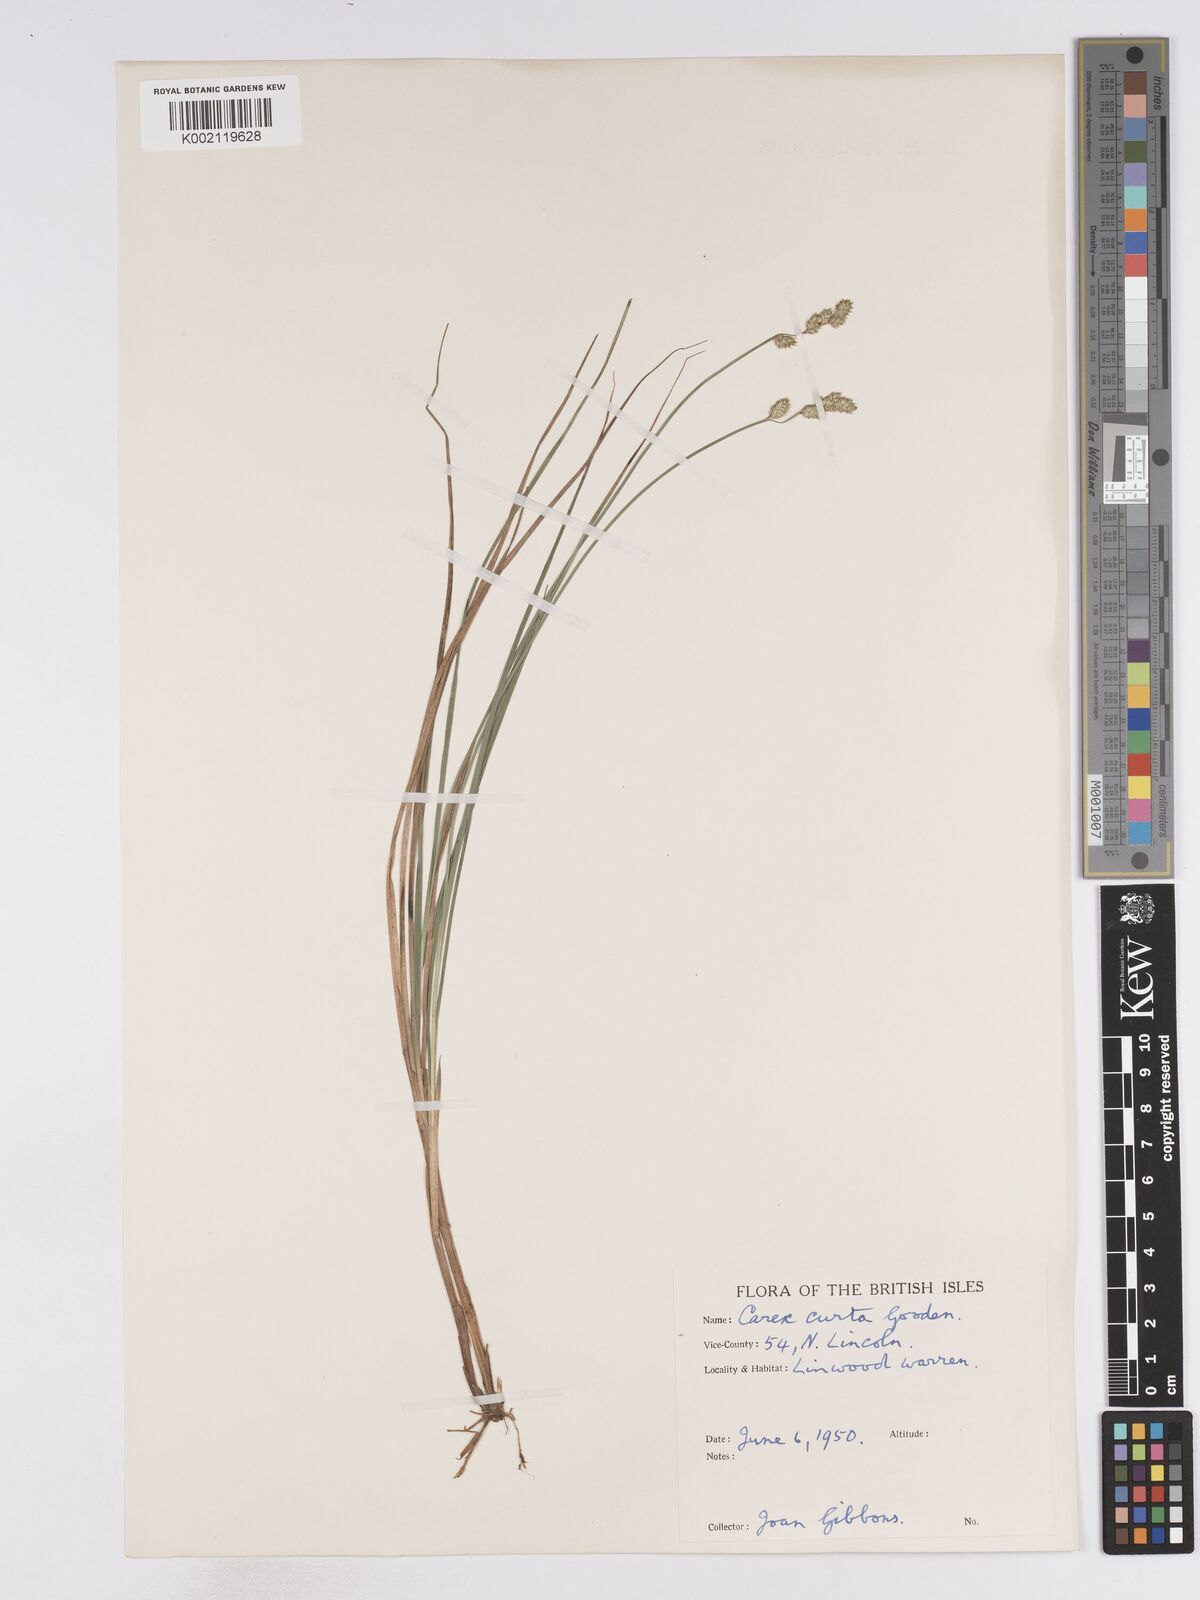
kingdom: Plantae
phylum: Tracheophyta
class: Liliopsida
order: Poales
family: Cyperaceae
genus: Carex
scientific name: Carex curta
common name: White sedge
